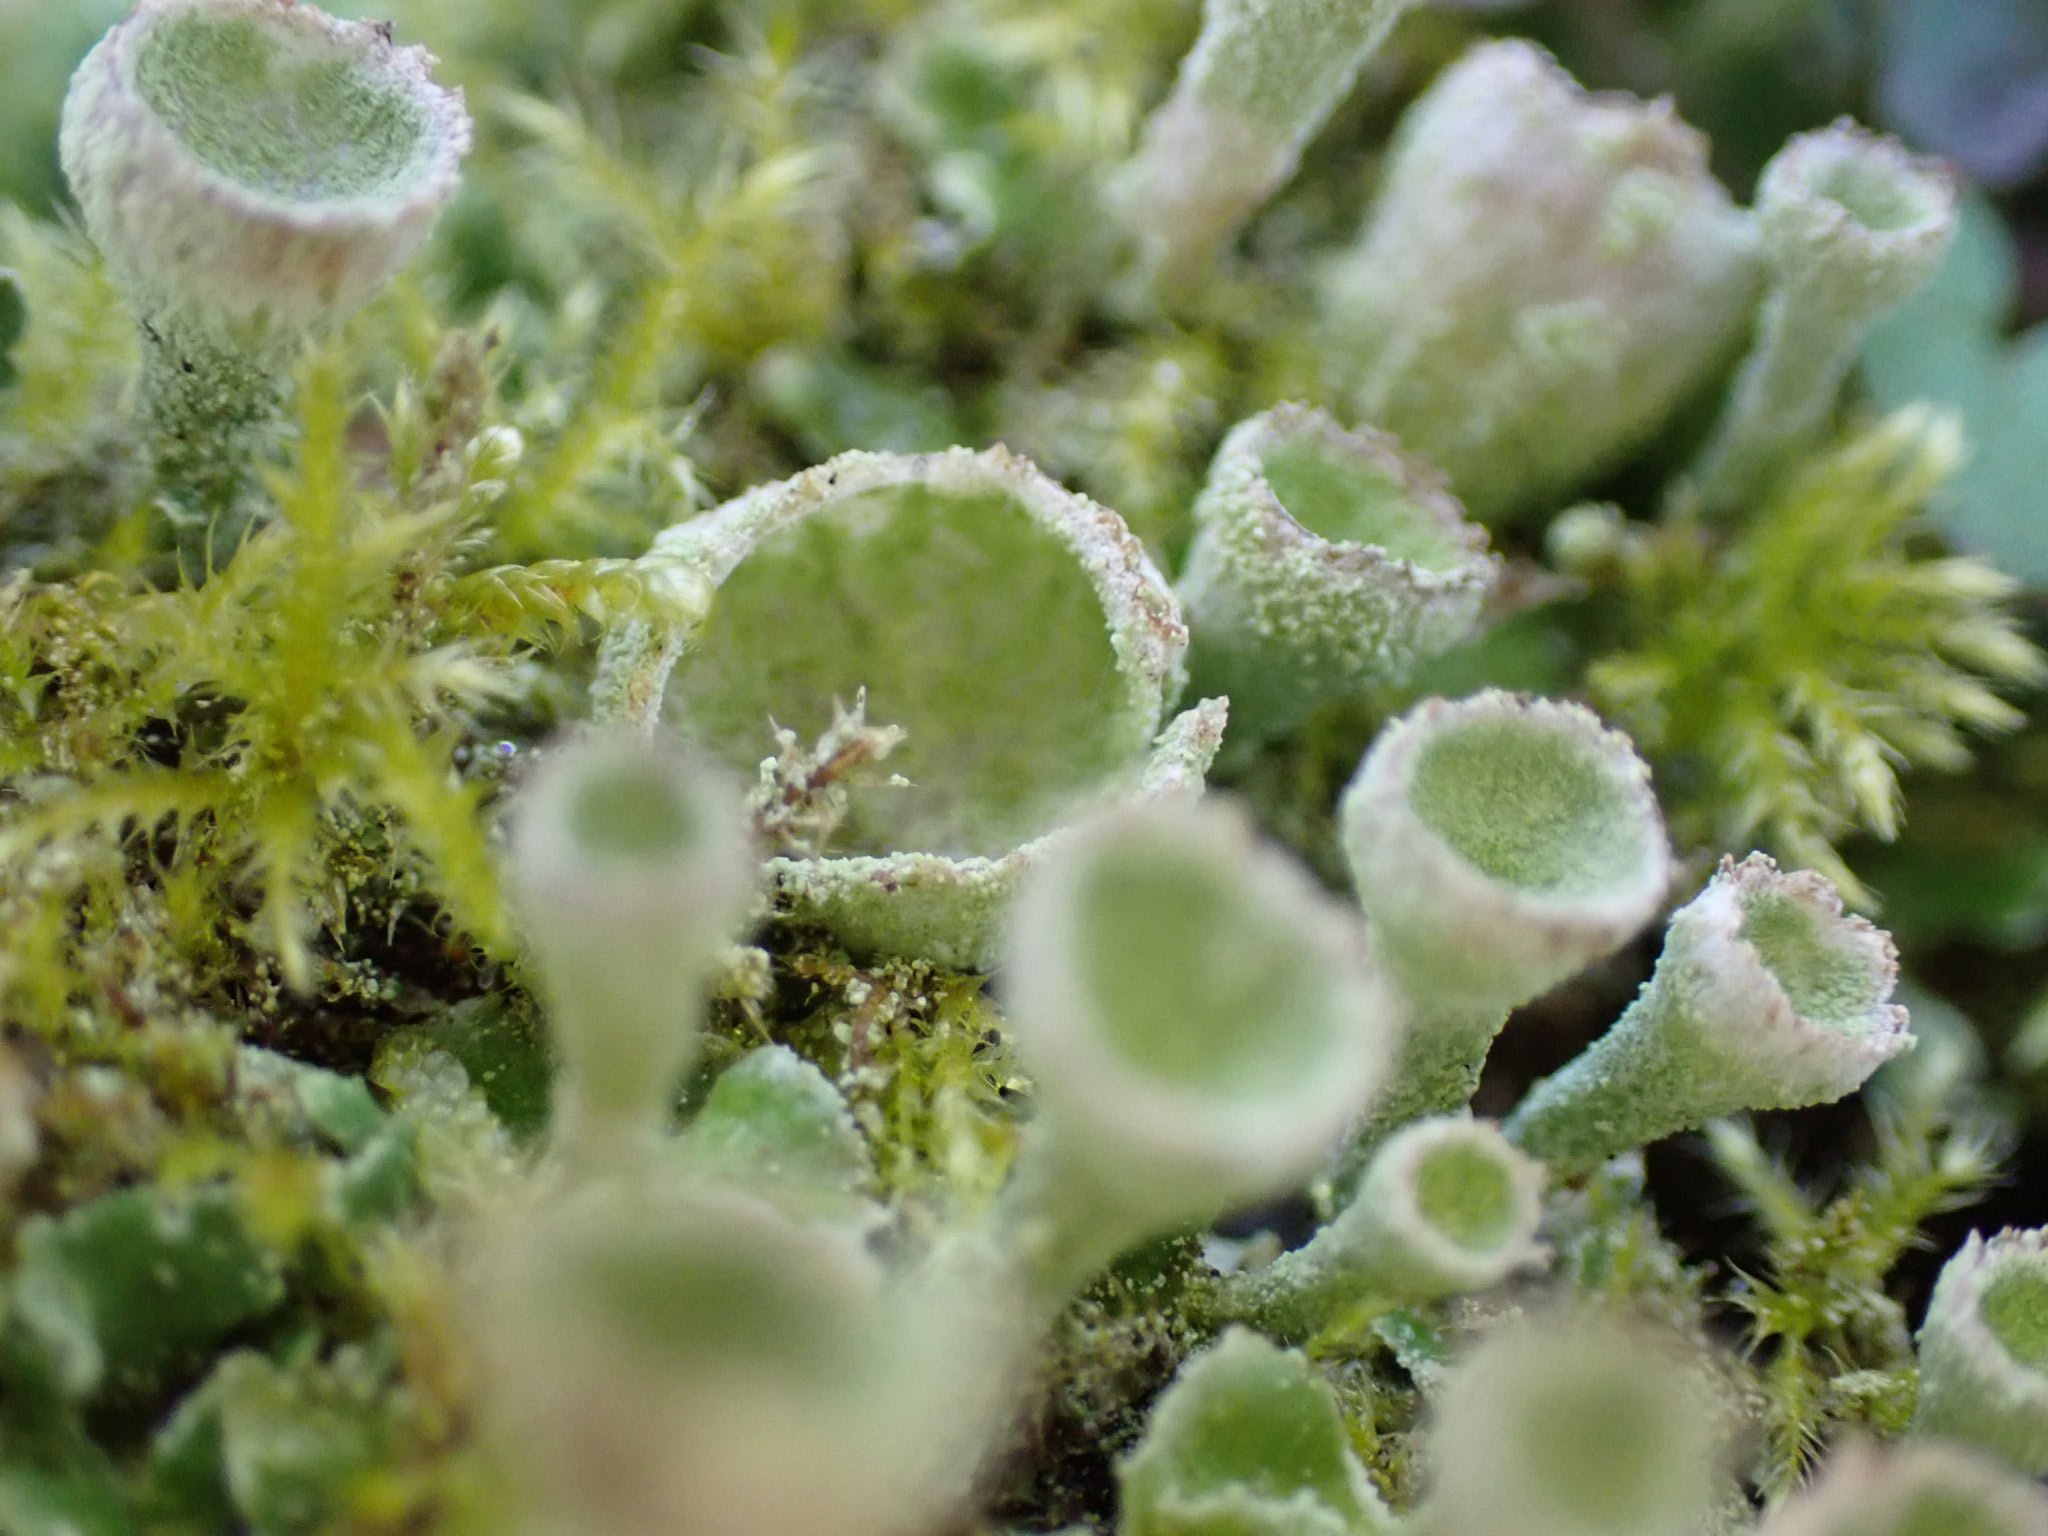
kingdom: Fungi
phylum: Ascomycota
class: Lecanoromycetes
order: Lecanorales
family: Cladoniaceae
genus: Cladonia
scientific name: Cladonia humilis
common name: lav bægerlav
